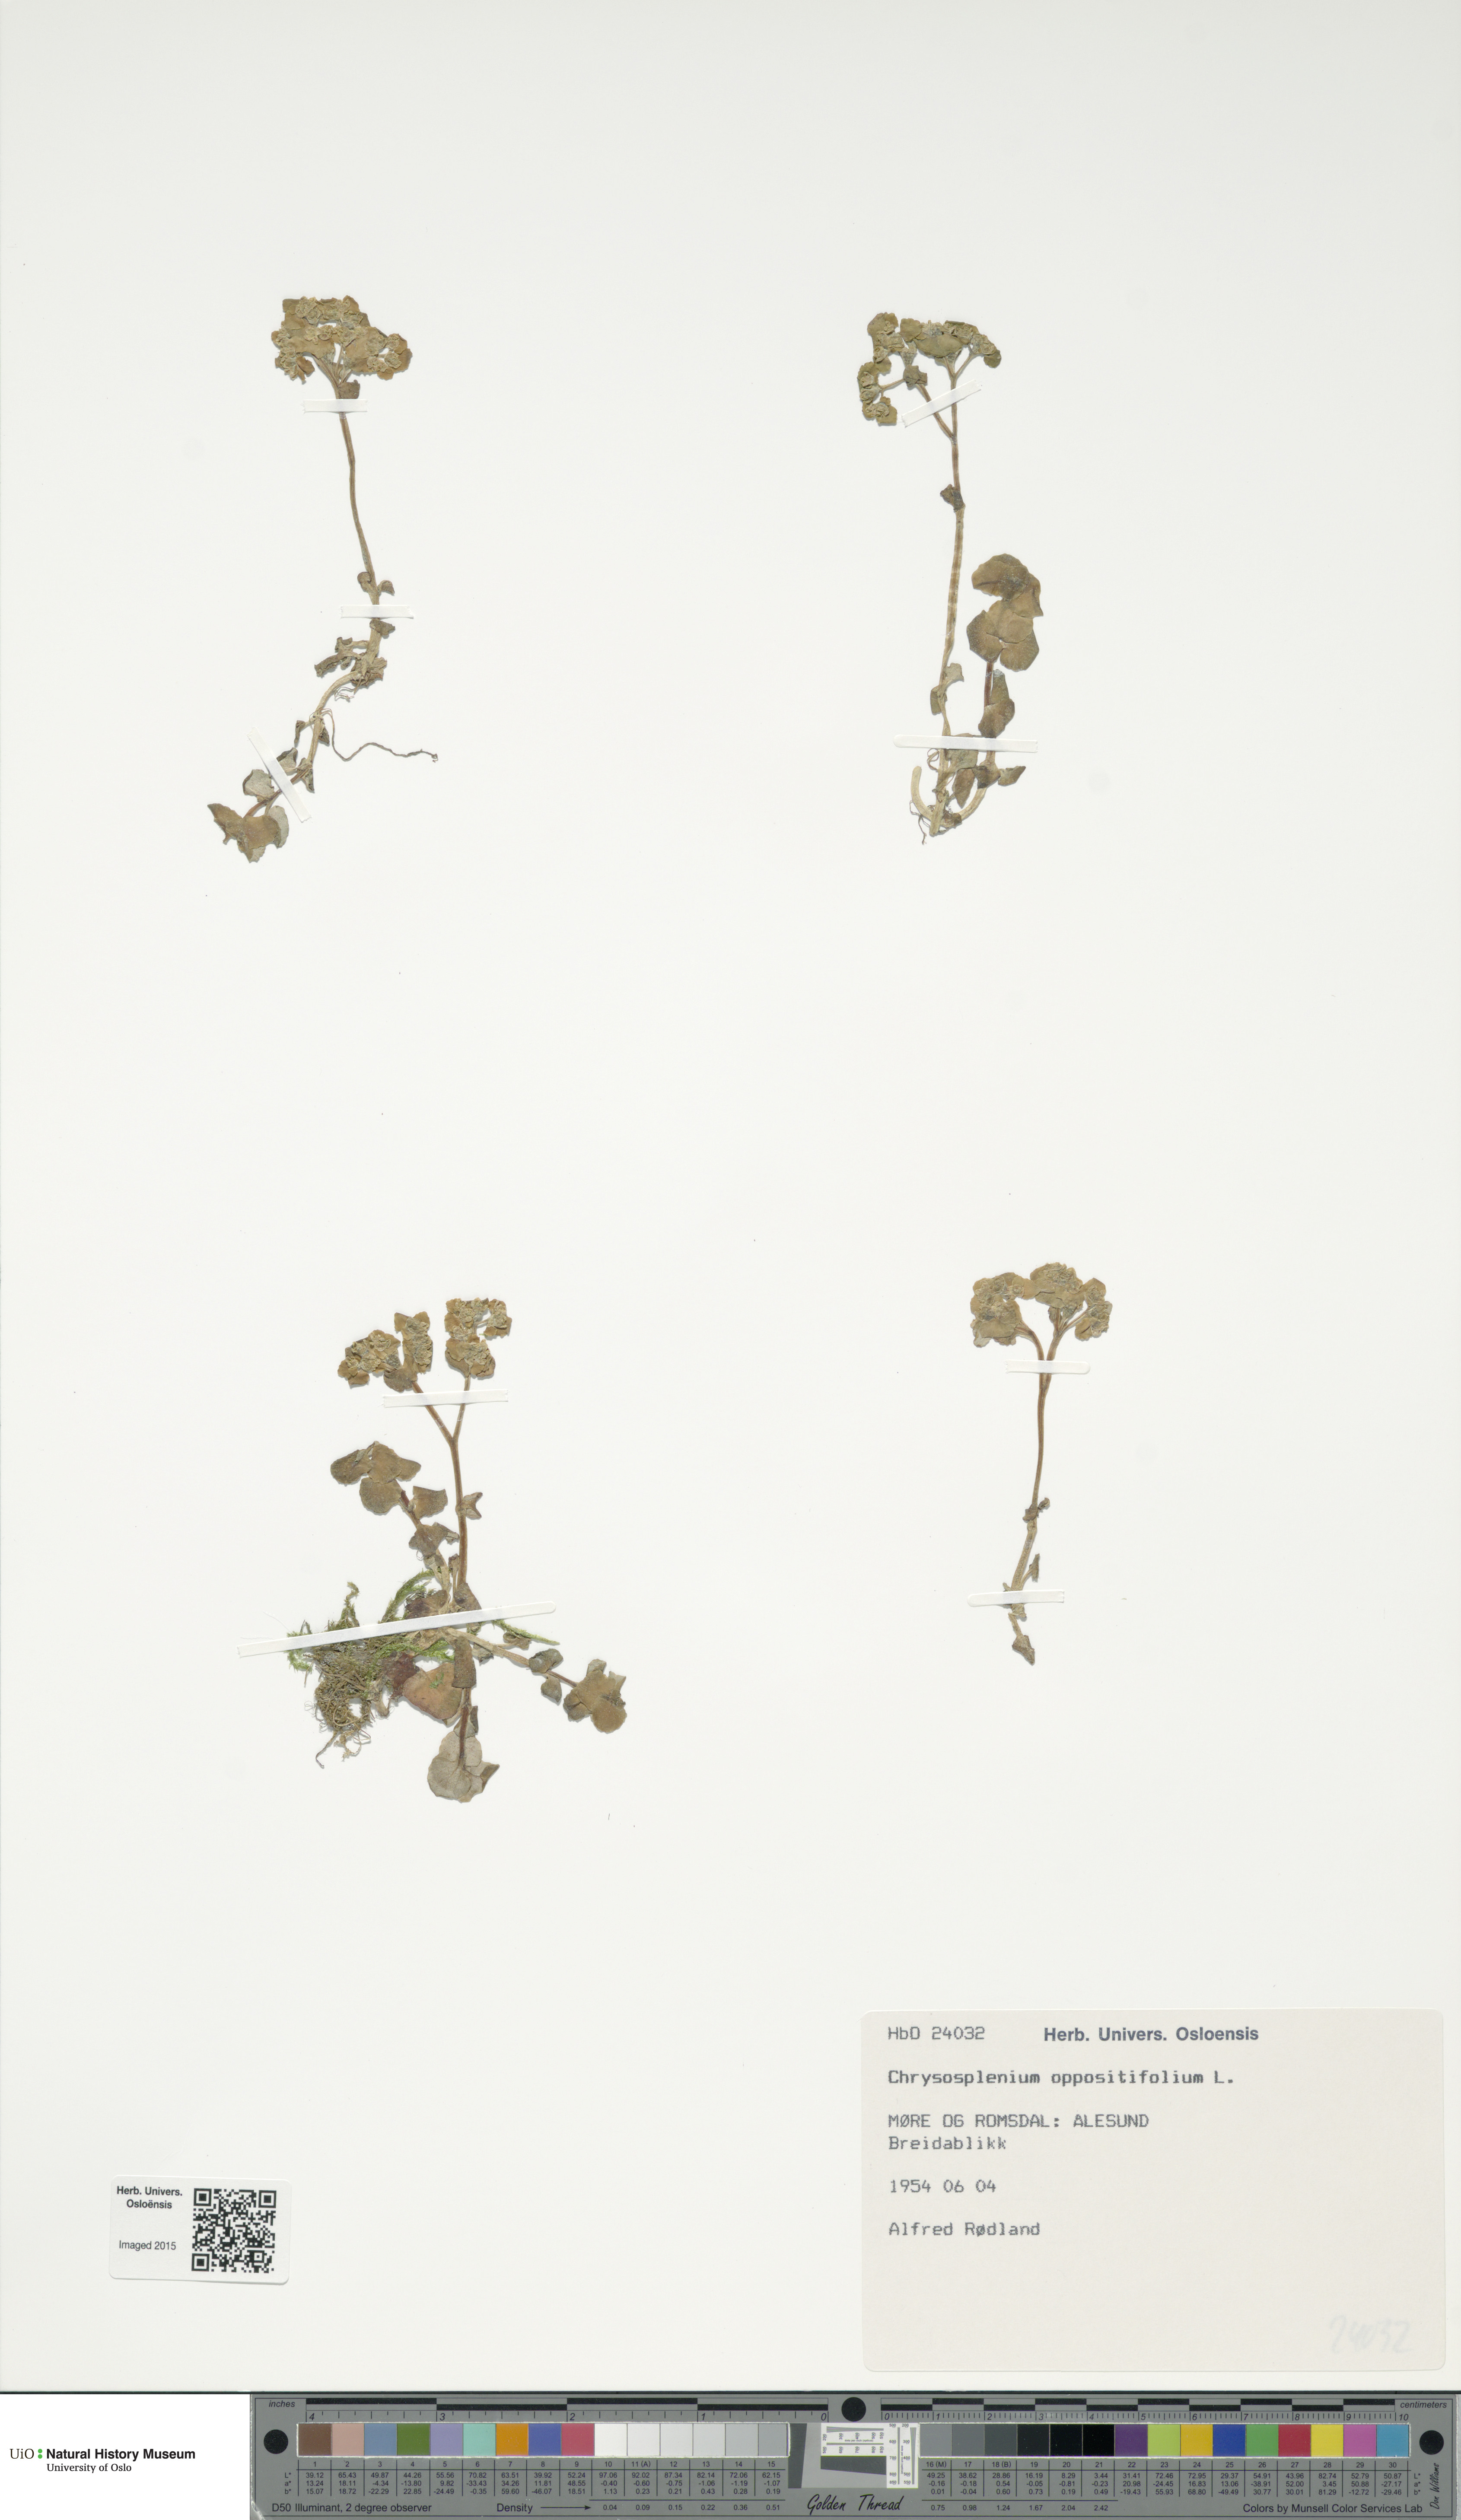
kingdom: Plantae
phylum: Tracheophyta
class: Magnoliopsida
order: Saxifragales
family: Saxifragaceae
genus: Chrysosplenium
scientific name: Chrysosplenium oppositifolium
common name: Opposite-leaved golden-saxifrage
